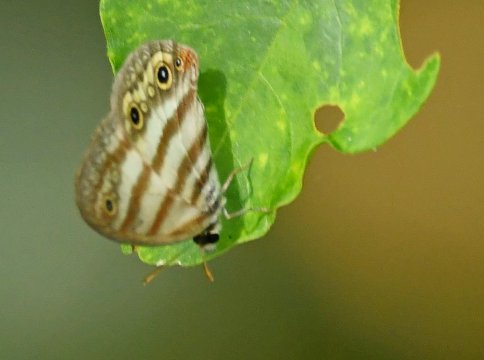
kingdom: Animalia
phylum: Arthropoda
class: Insecta
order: Lepidoptera
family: Nymphalidae
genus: Euptychia
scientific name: Euptychia mollina
